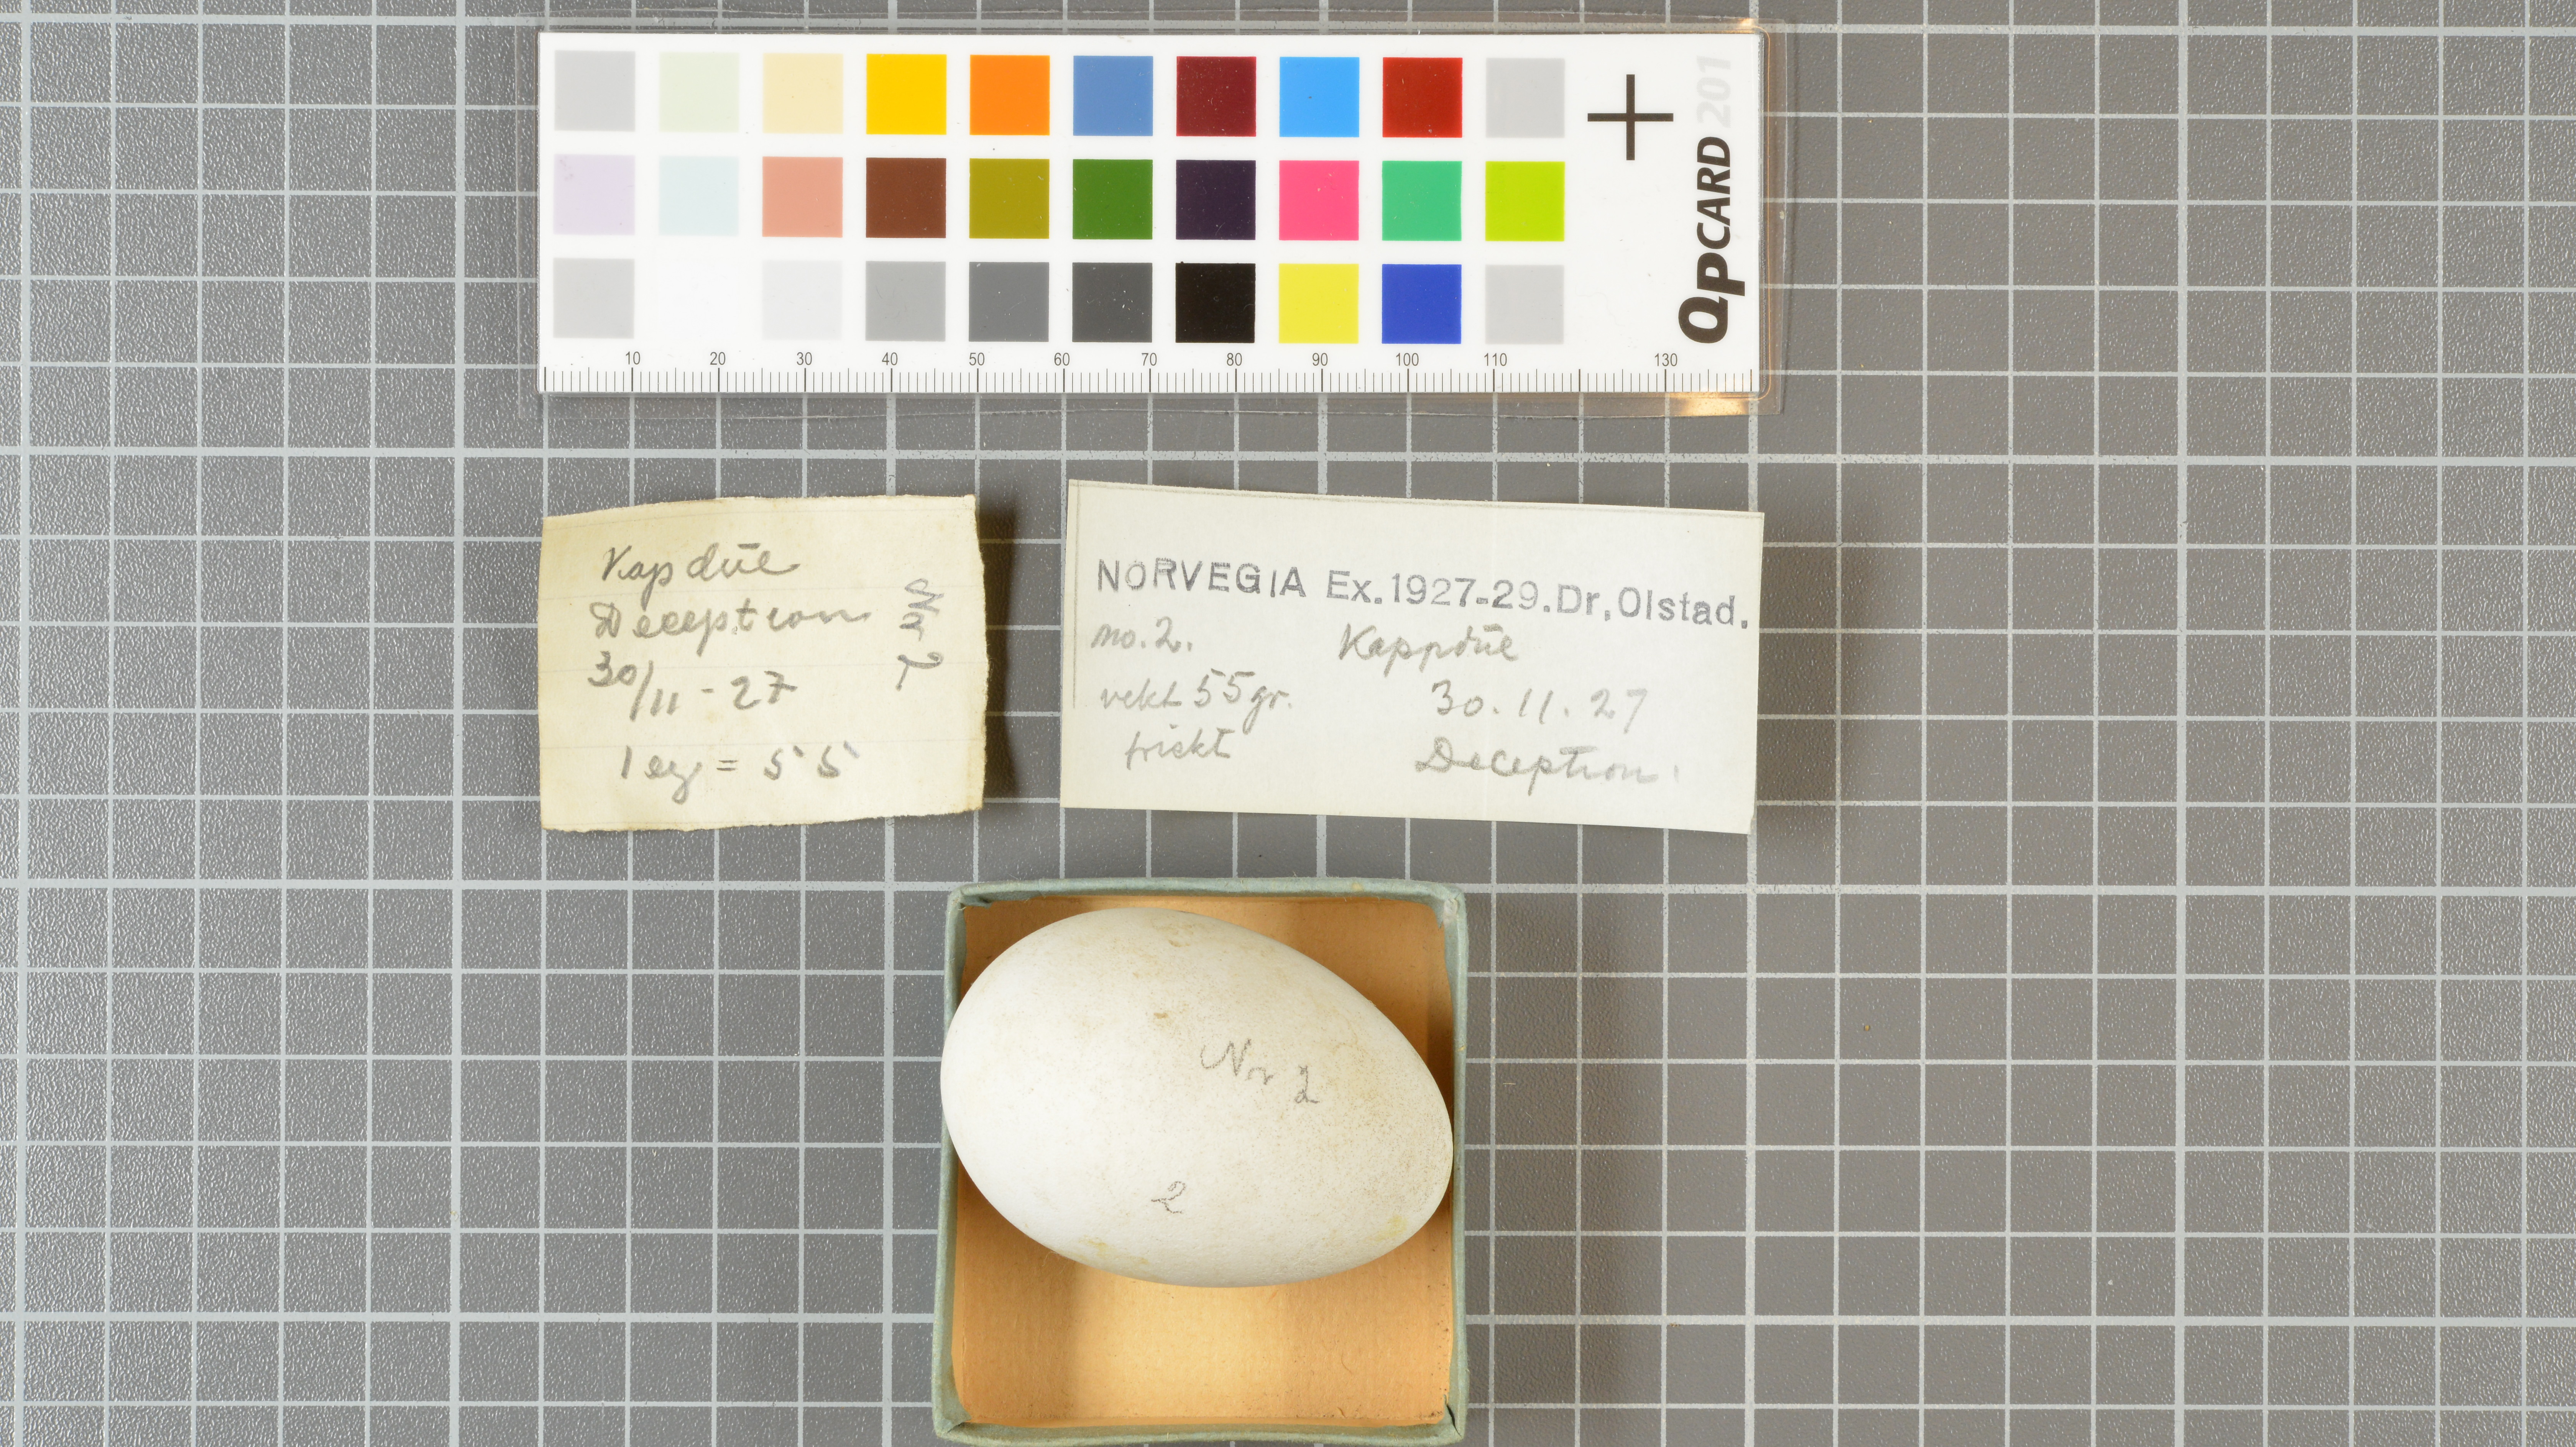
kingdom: Animalia
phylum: Chordata
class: Aves
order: Procellariiformes
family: Procellariidae
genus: Daption
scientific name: Daption capense
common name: Cape petrel
